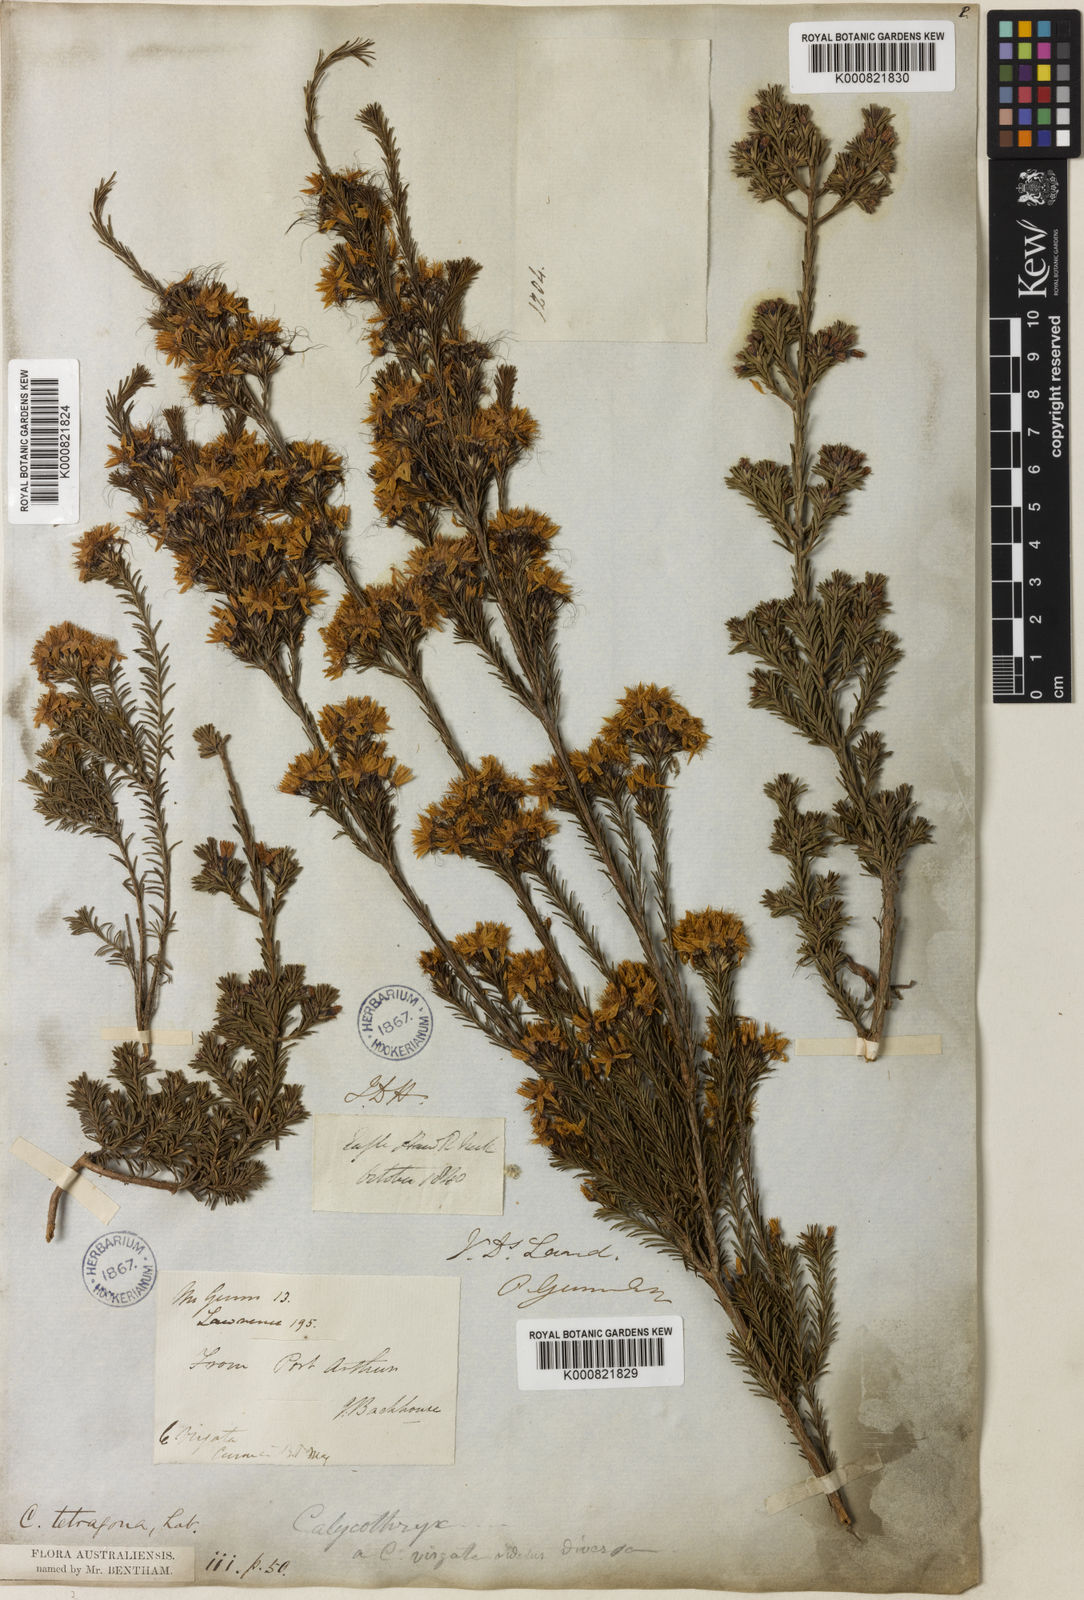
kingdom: Plantae
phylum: Tracheophyta
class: Magnoliopsida
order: Myrtales
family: Myrtaceae
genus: Calytrix
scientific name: Calytrix tetragona
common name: Common fringe myrtle
